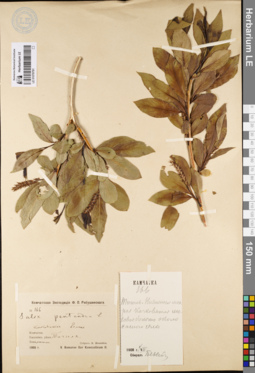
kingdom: Plantae
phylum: Tracheophyta
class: Magnoliopsida
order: Malpighiales
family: Salicaceae
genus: Salix
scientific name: Salix pseudopentandra
